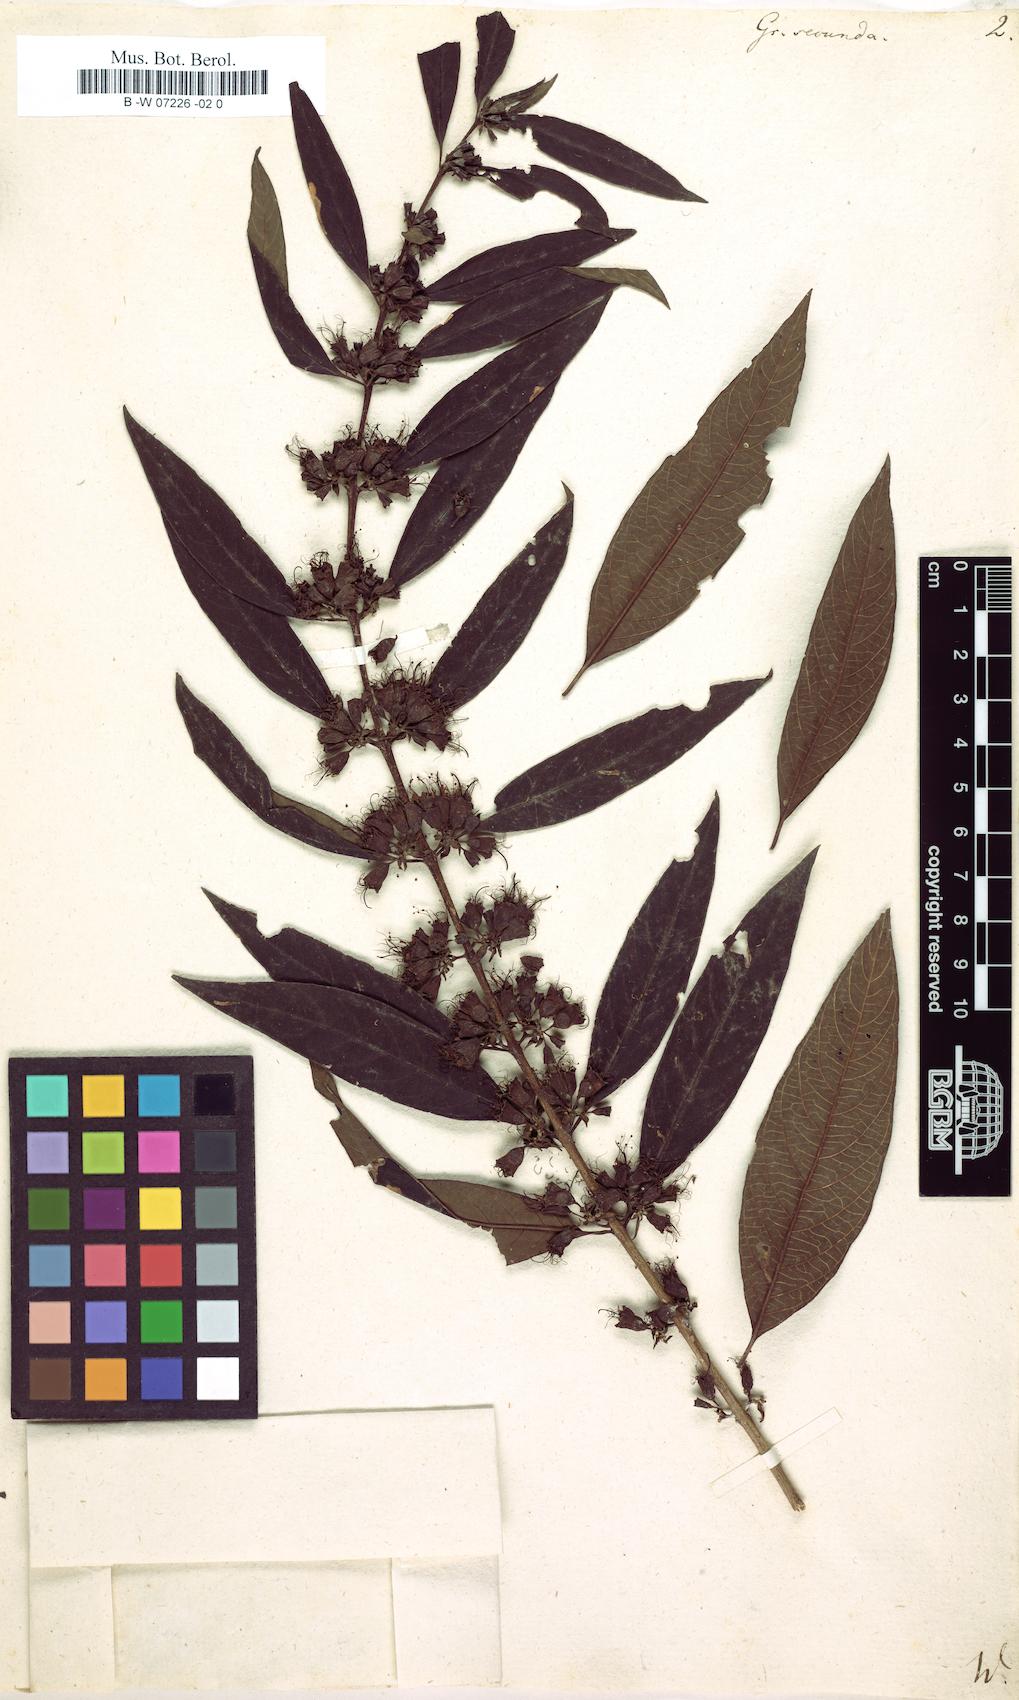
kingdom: Plantae
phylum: Tracheophyta
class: Magnoliopsida
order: Myrtales
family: Combretaceae
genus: Combretum
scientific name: Combretum farinosum
